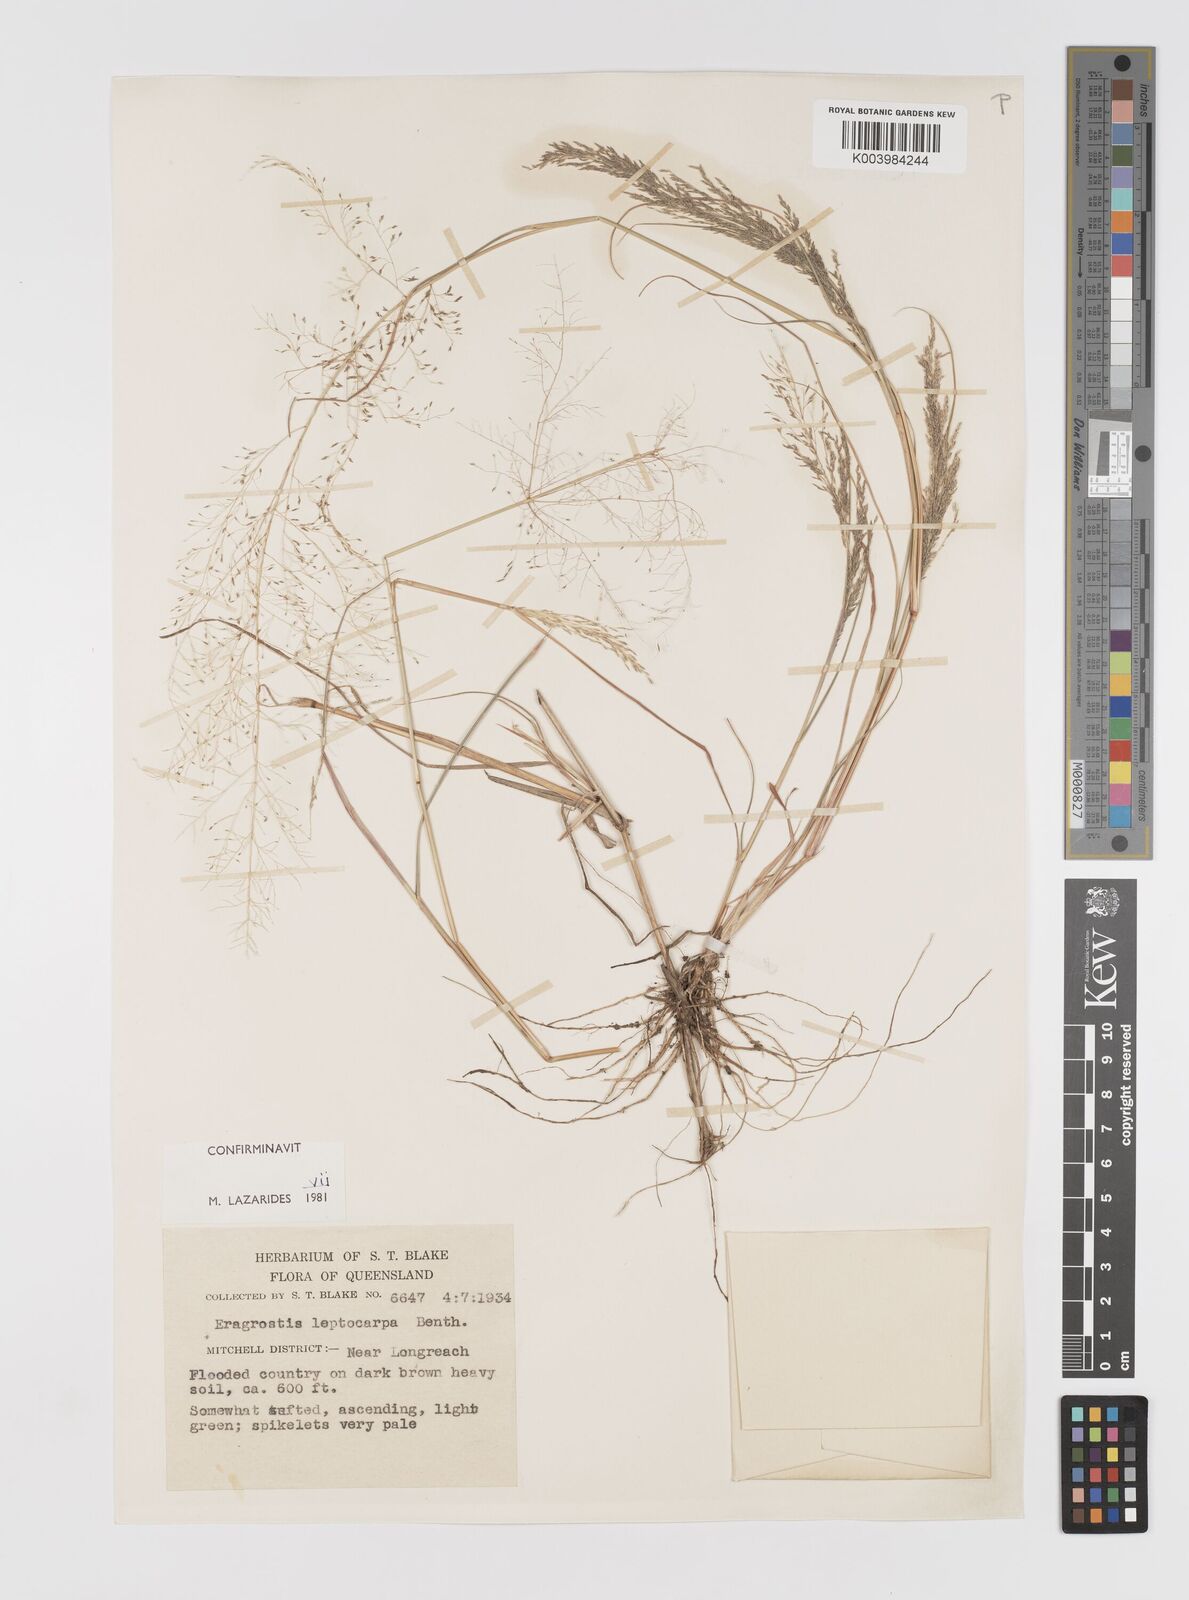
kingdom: Plantae
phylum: Tracheophyta
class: Liliopsida
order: Poales
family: Poaceae
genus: Eragrostis
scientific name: Eragrostis leptocarpa
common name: Drooping love grass
